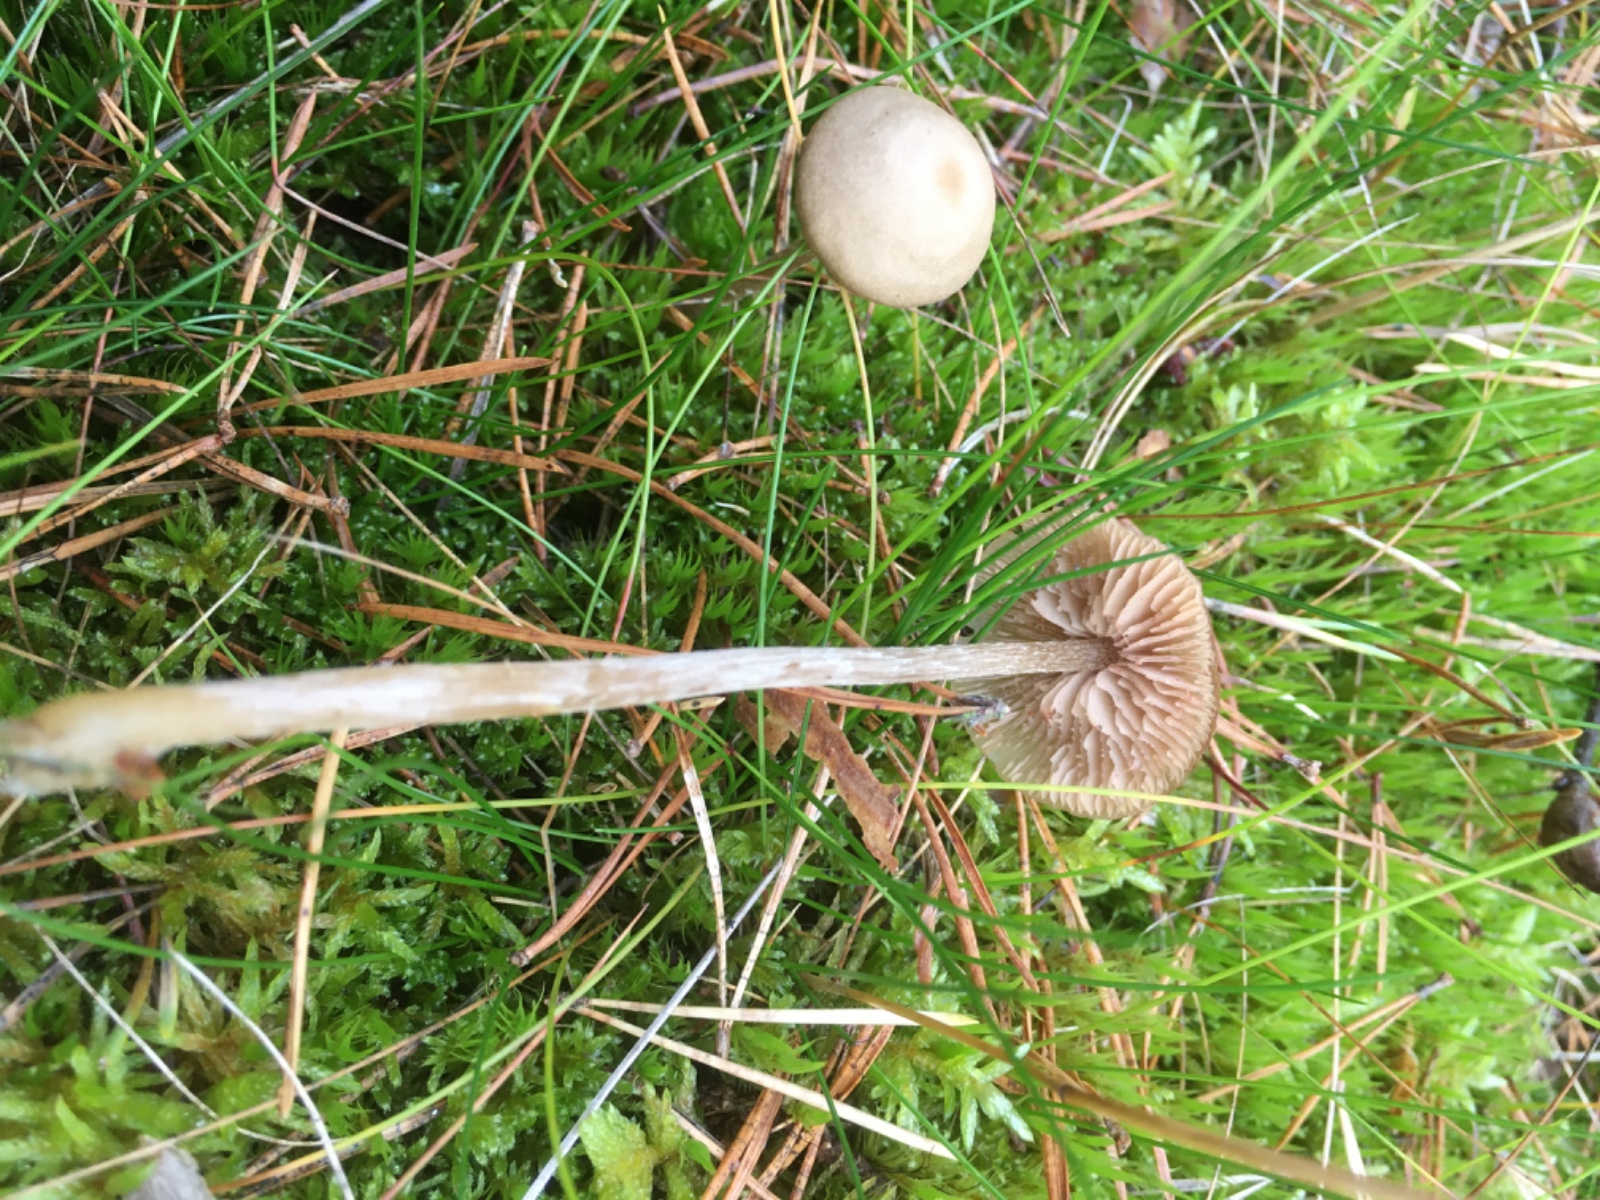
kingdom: Fungi
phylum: Basidiomycota
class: Agaricomycetes
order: Agaricales
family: Entolomataceae
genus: Entoloma
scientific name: Entoloma
